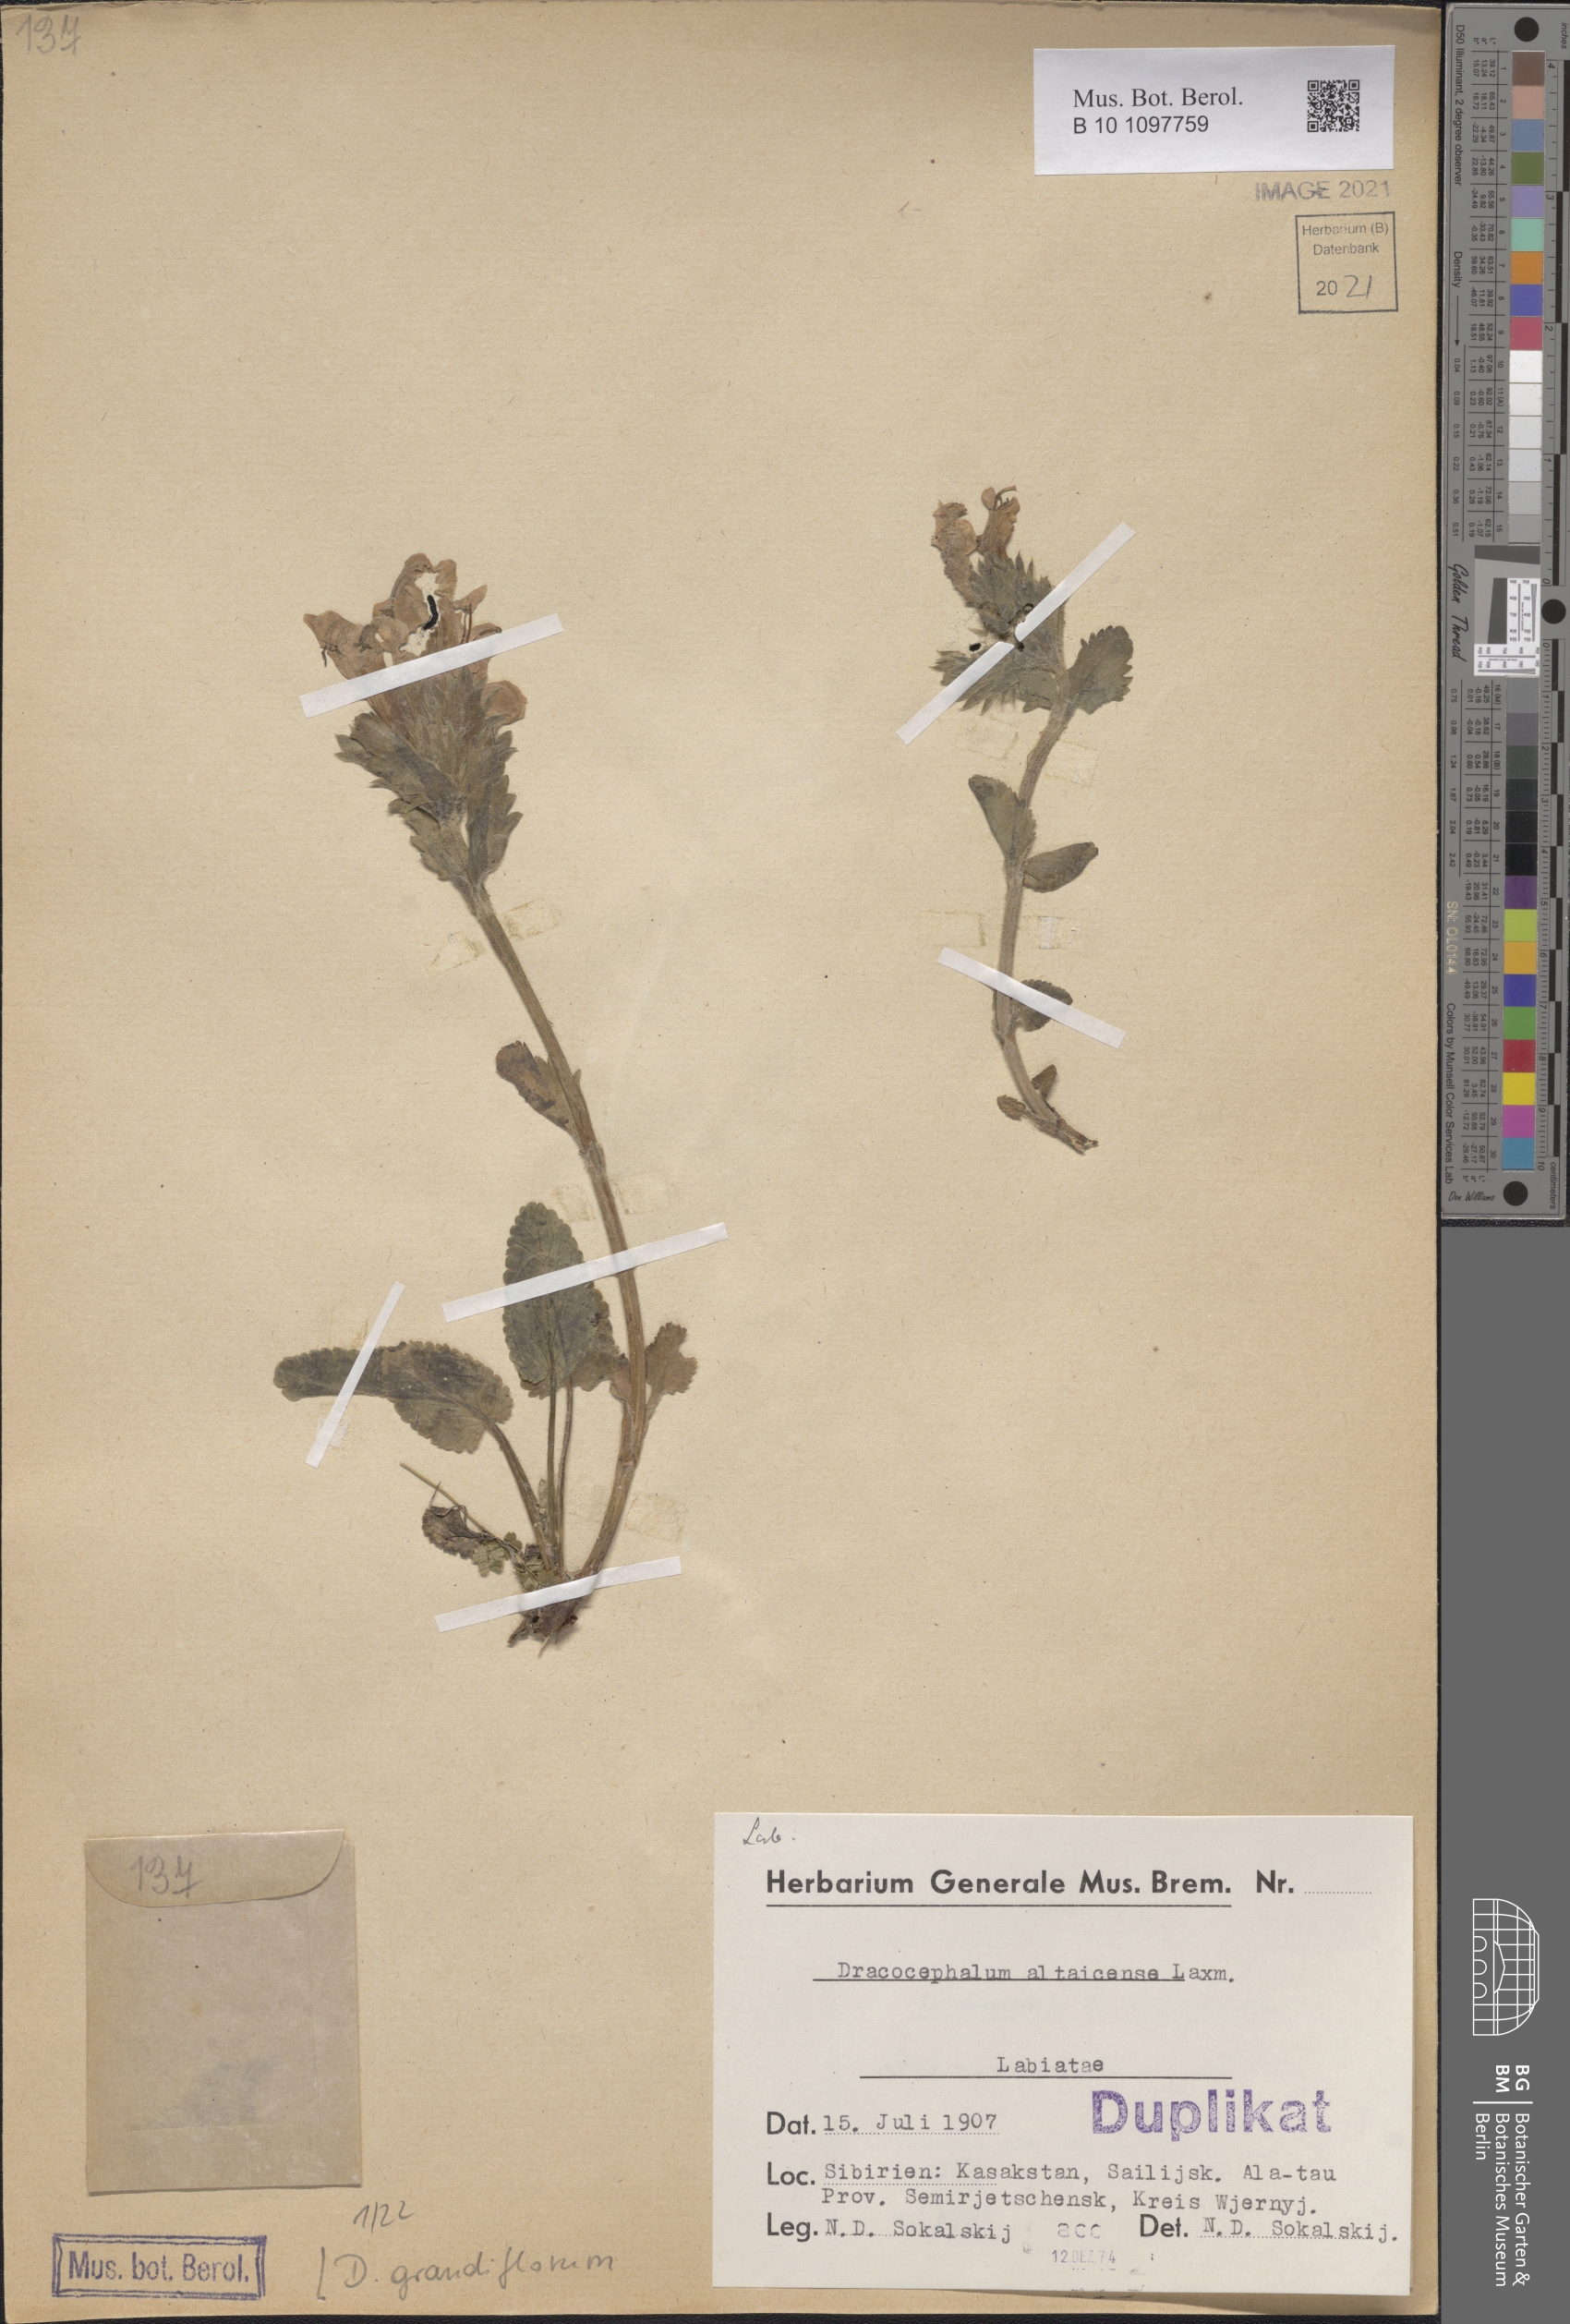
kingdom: Plantae
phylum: Tracheophyta
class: Magnoliopsida
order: Lamiales
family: Lamiaceae
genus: Dracocephalum
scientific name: Dracocephalum grandiflorum
